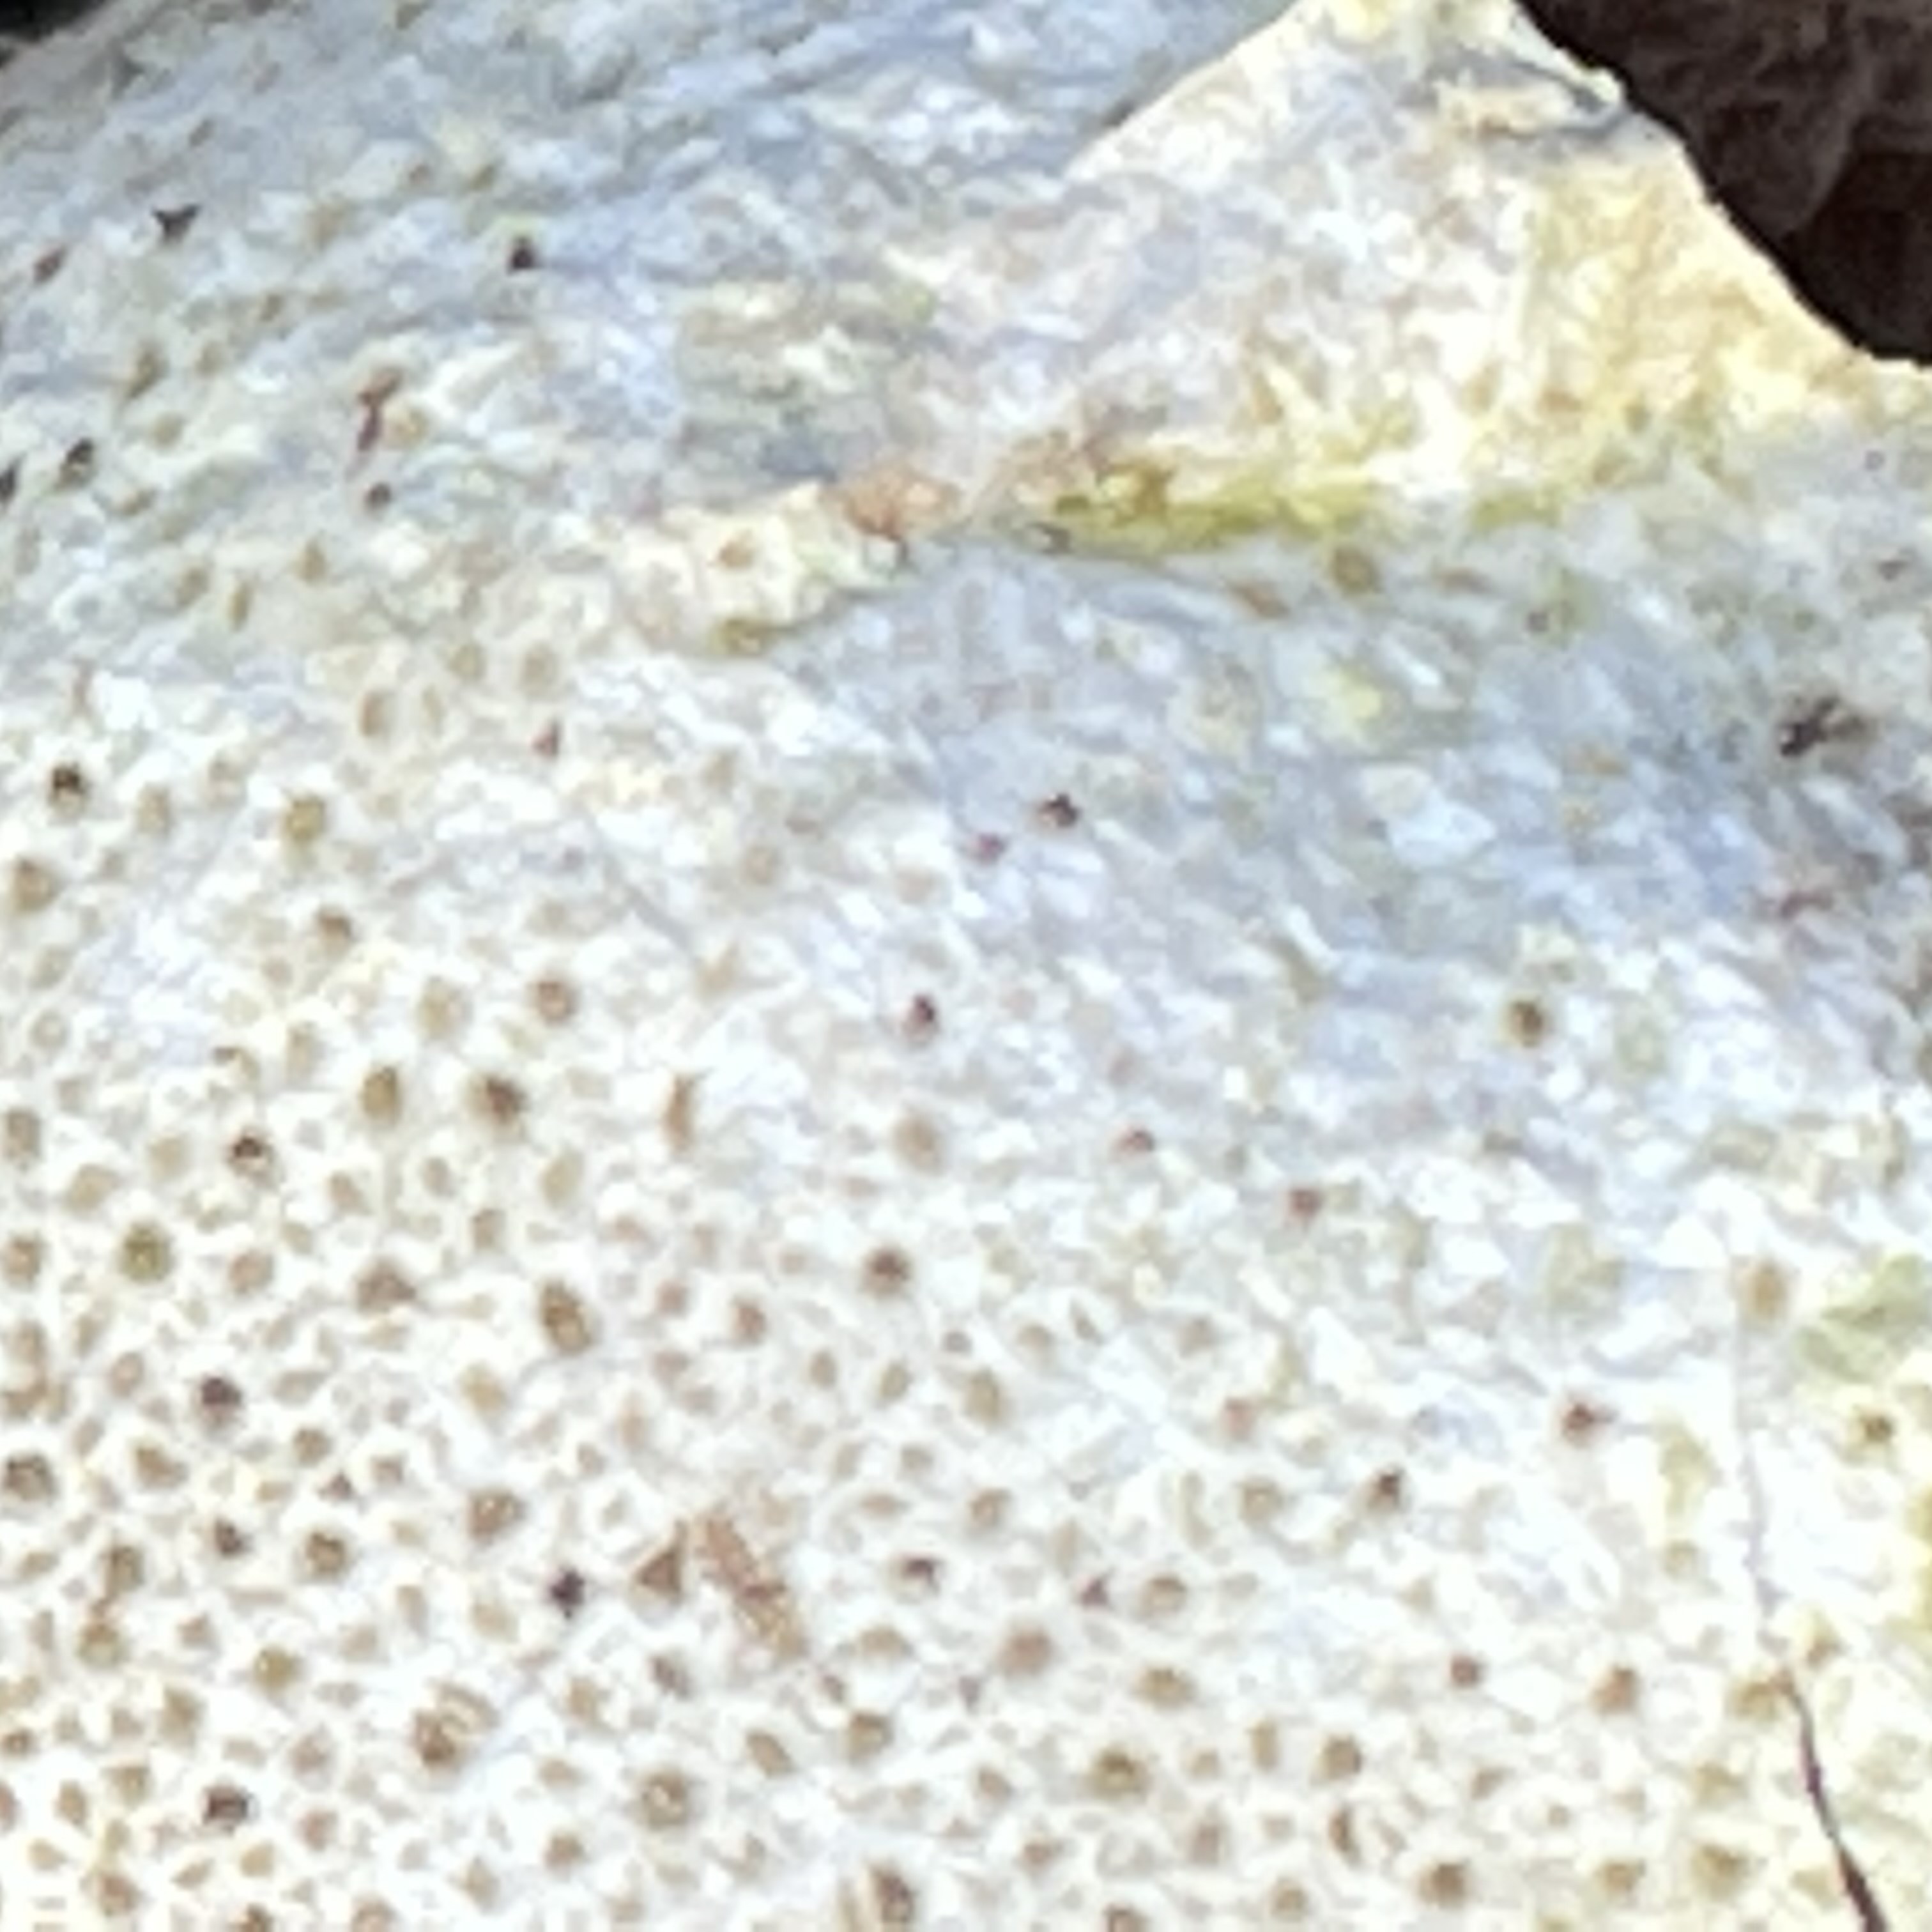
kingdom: Fungi
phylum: Basidiomycota
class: Agaricomycetes
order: Agaricales
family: Agaricaceae
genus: Lycoperdon
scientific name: Lycoperdon
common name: støvbold
